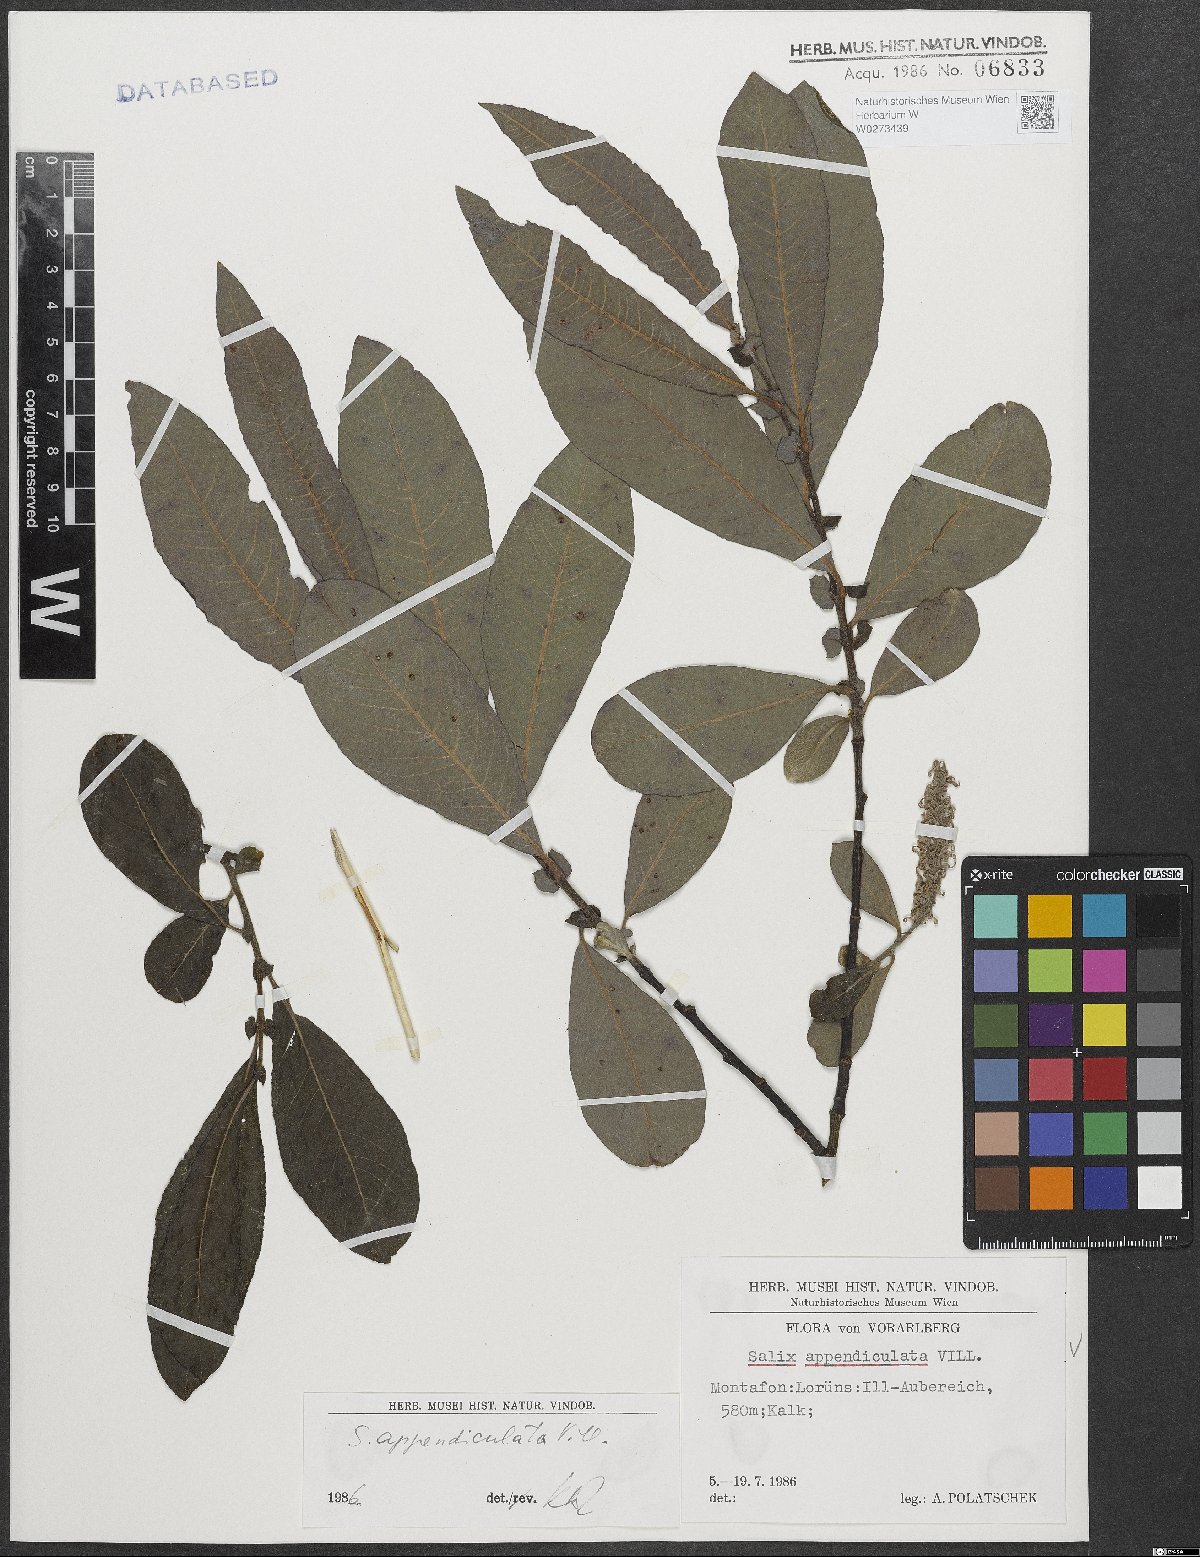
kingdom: Plantae
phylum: Tracheophyta
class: Magnoliopsida
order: Malpighiales
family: Salicaceae
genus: Salix
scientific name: Salix appendiculata
